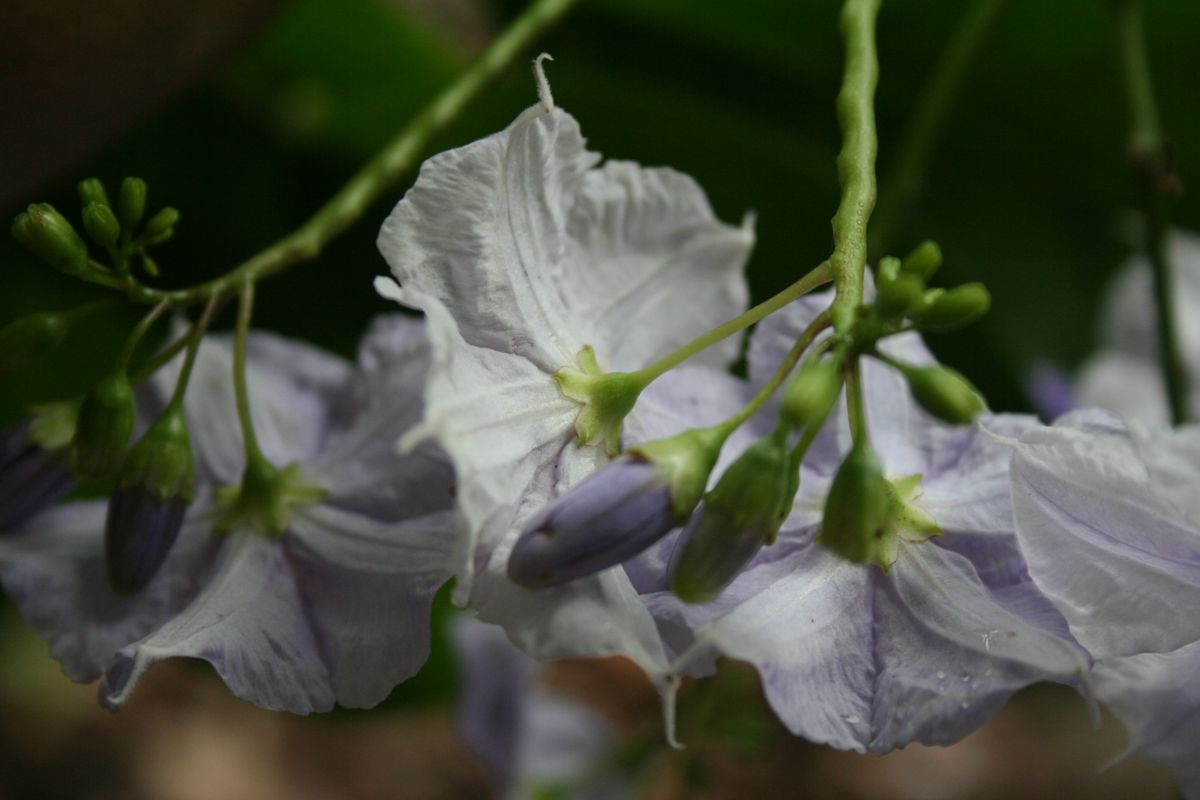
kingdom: Plantae
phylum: Tracheophyta
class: Magnoliopsida
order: Solanales
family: Solanaceae
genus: Solanum
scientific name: Solanum wendlandii
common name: Costa rican nightshade
